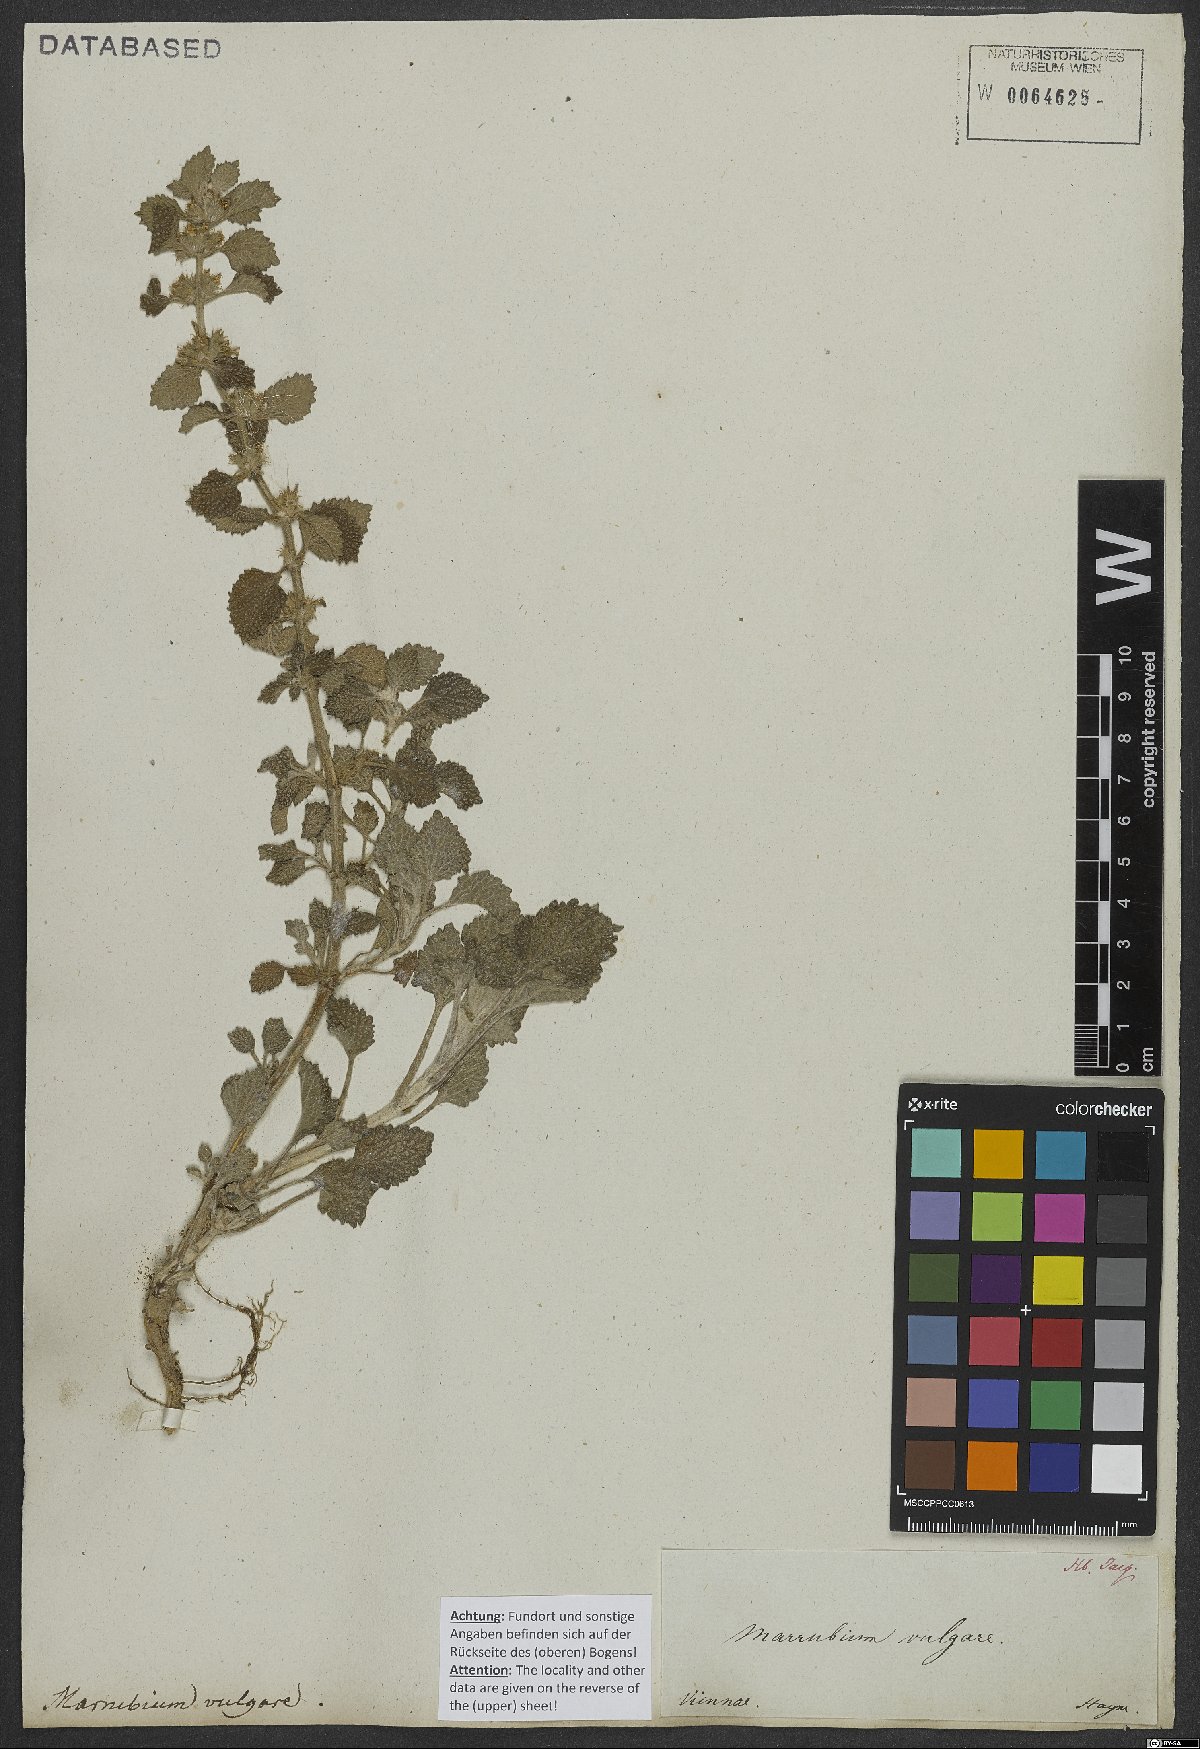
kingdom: Plantae
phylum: Tracheophyta
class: Magnoliopsida
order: Lamiales
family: Lamiaceae
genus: Marrubium
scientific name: Marrubium vulgare
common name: Horehound
